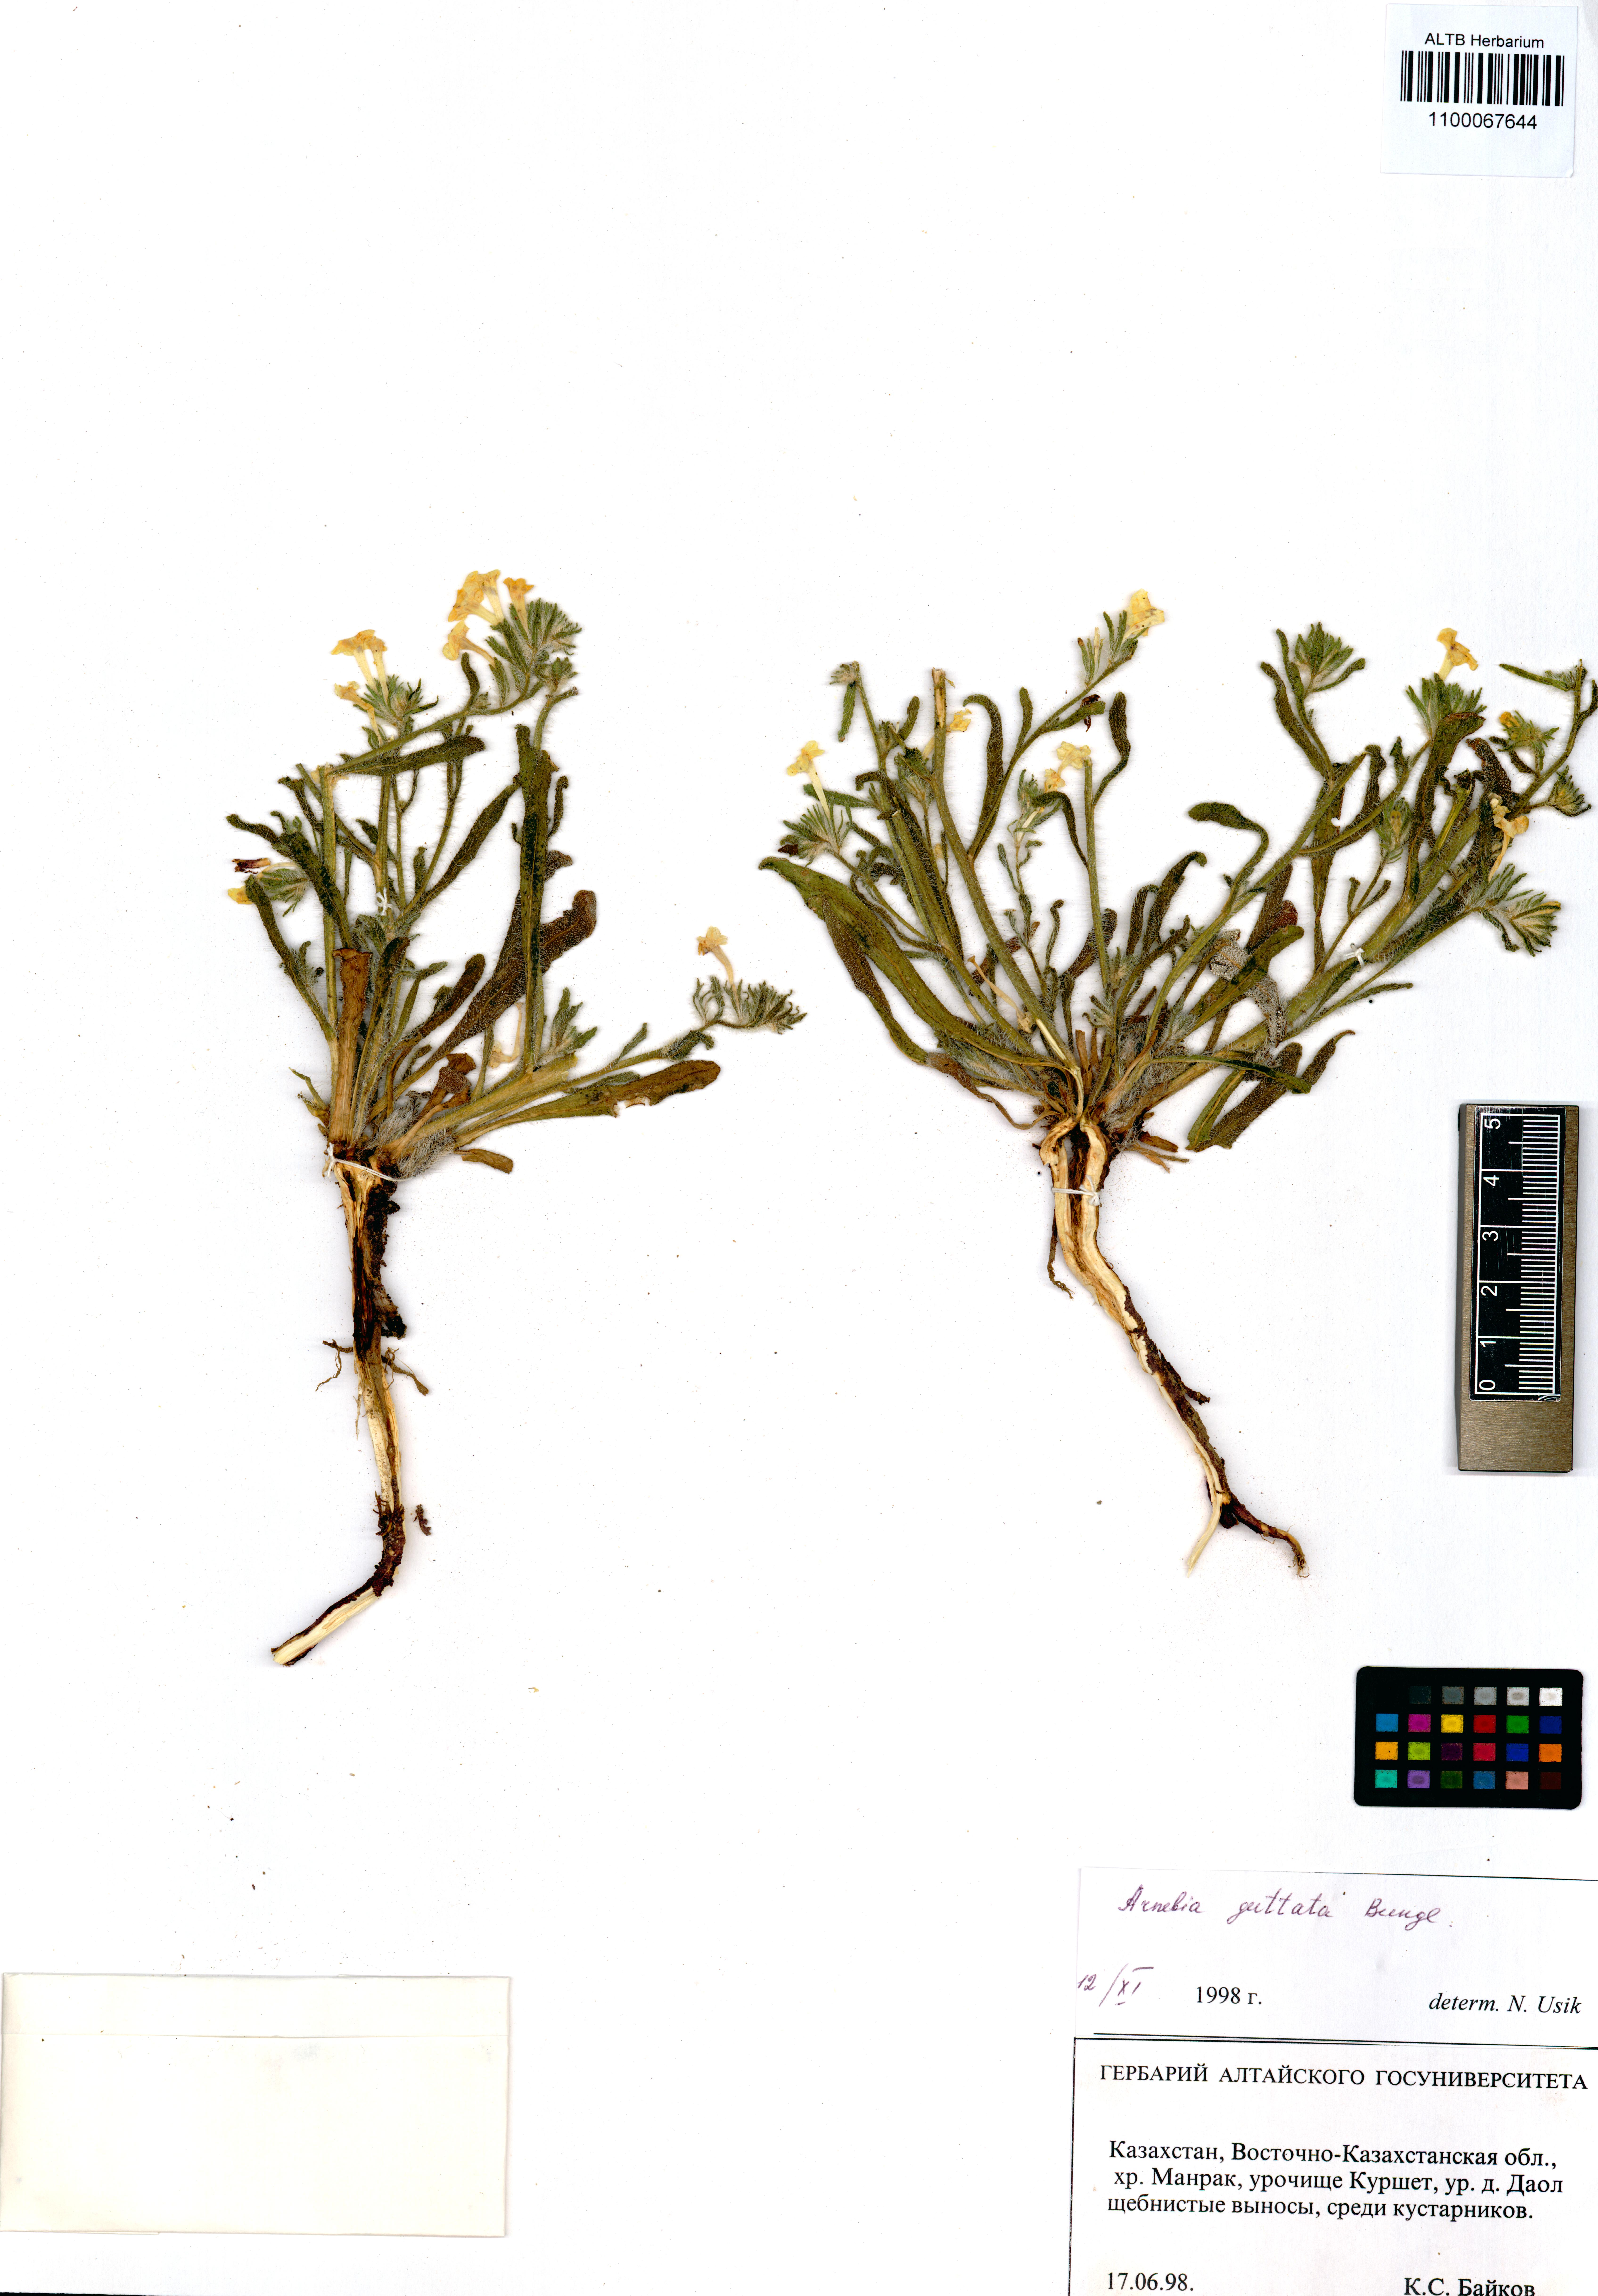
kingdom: Plantae
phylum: Tracheophyta
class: Magnoliopsida
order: Boraginales
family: Boraginaceae
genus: Arnebia
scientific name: Arnebia guttata
